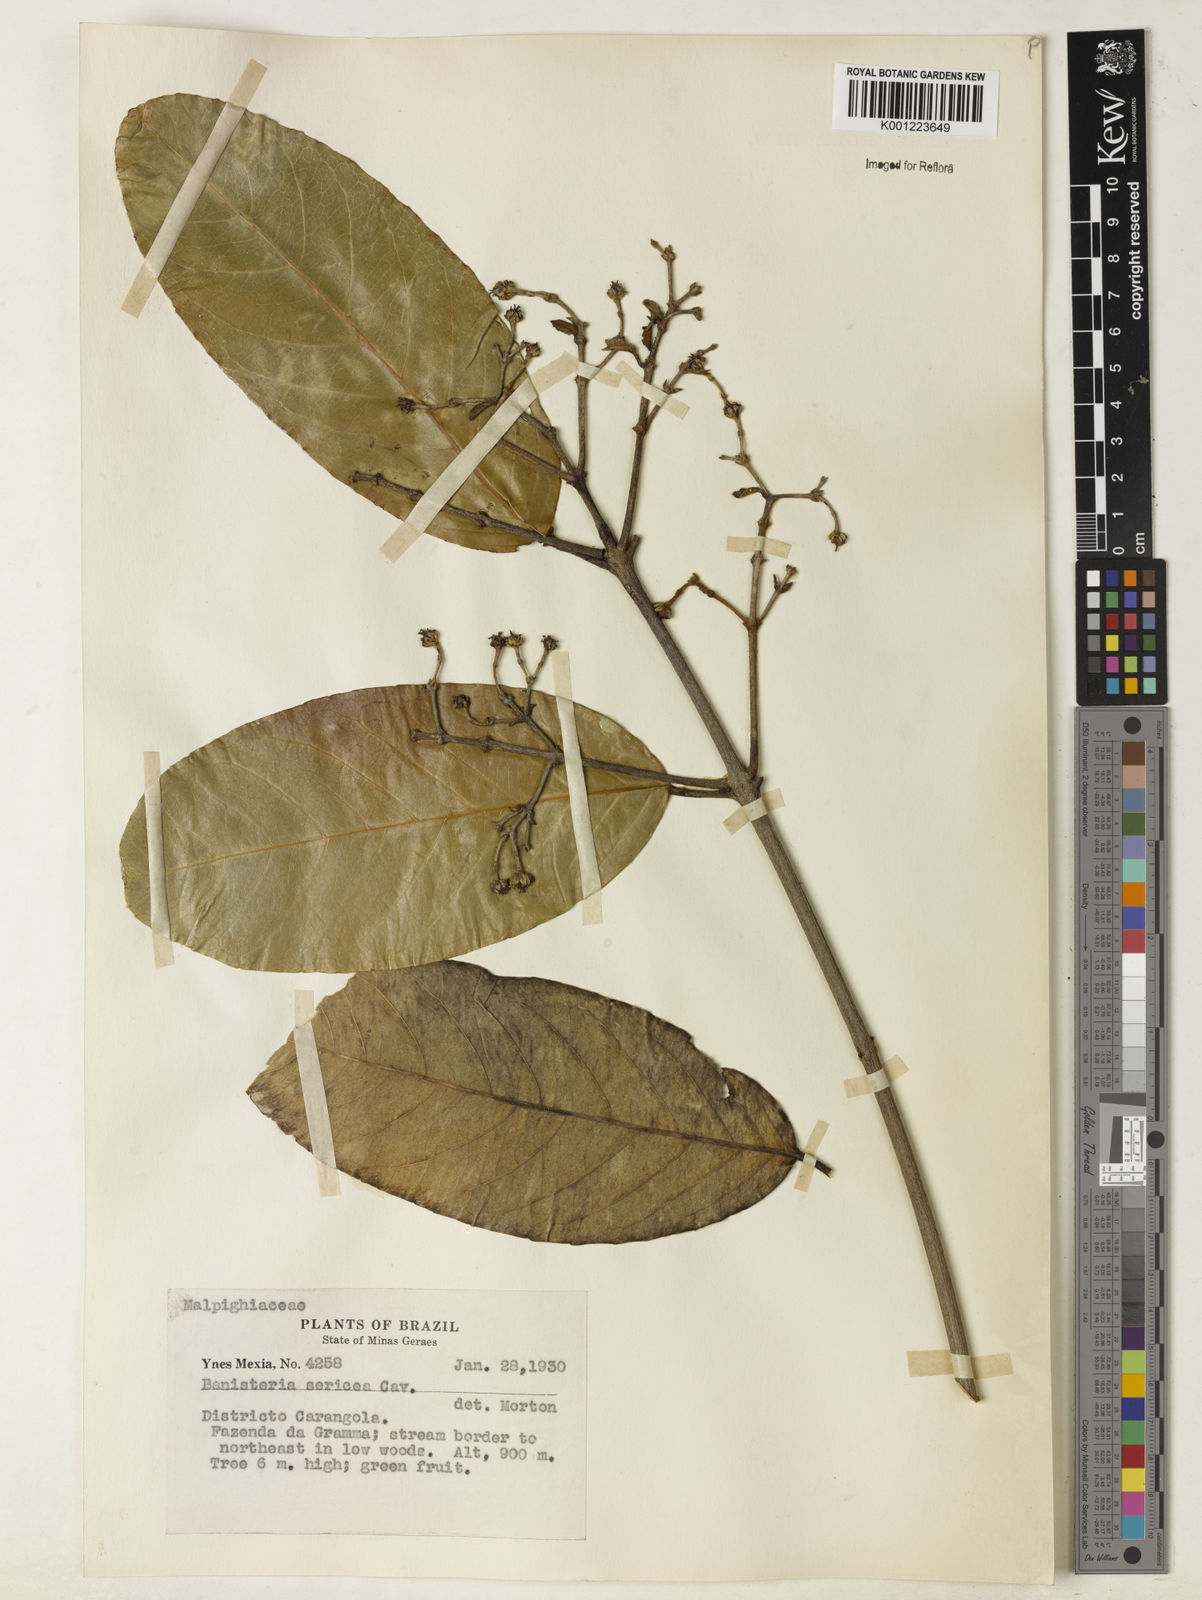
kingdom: Plantae
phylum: Tracheophyta
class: Magnoliopsida
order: Malpighiales
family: Malpighiaceae
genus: Heteropterys
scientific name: Heteropterys sericea
